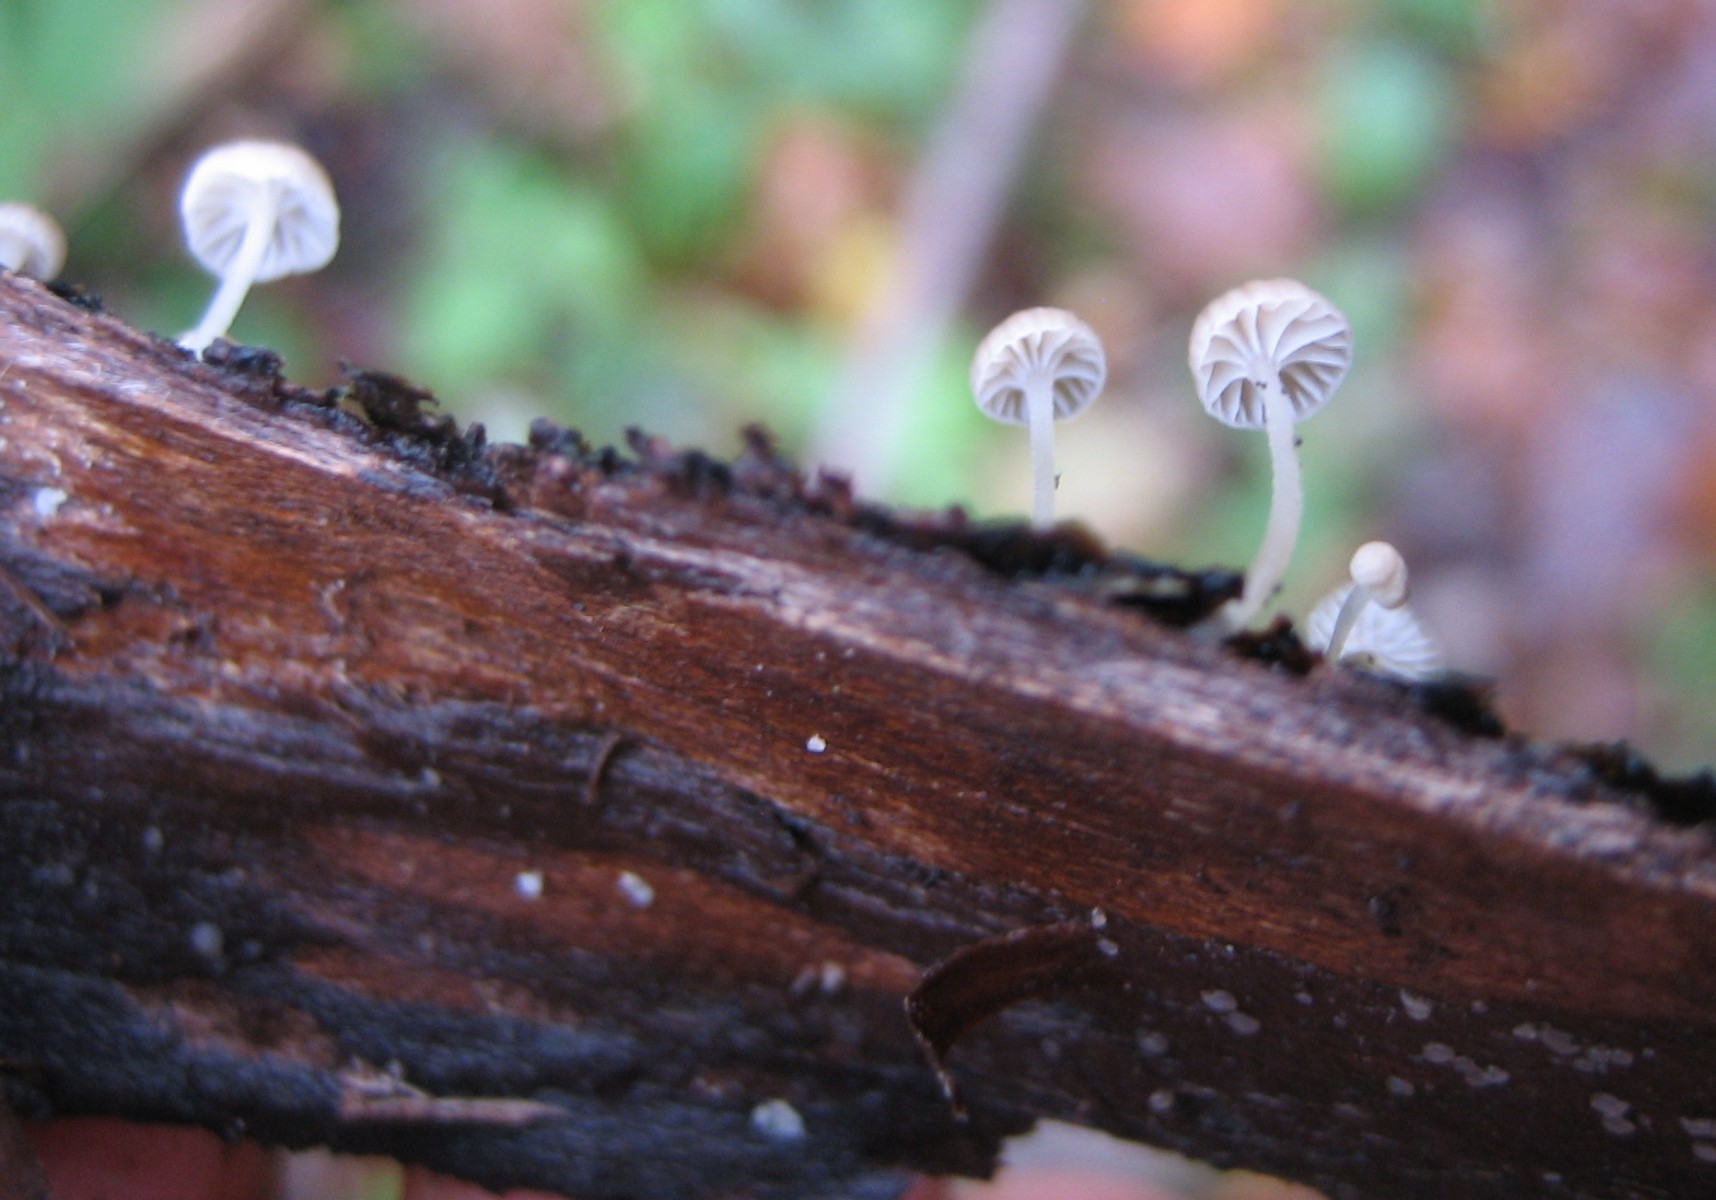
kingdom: Fungi
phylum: Basidiomycota
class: Agaricomycetes
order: Agaricales
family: Porotheleaceae
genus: Phloeomana
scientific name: Phloeomana speirea
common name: kvist-huesvamp
